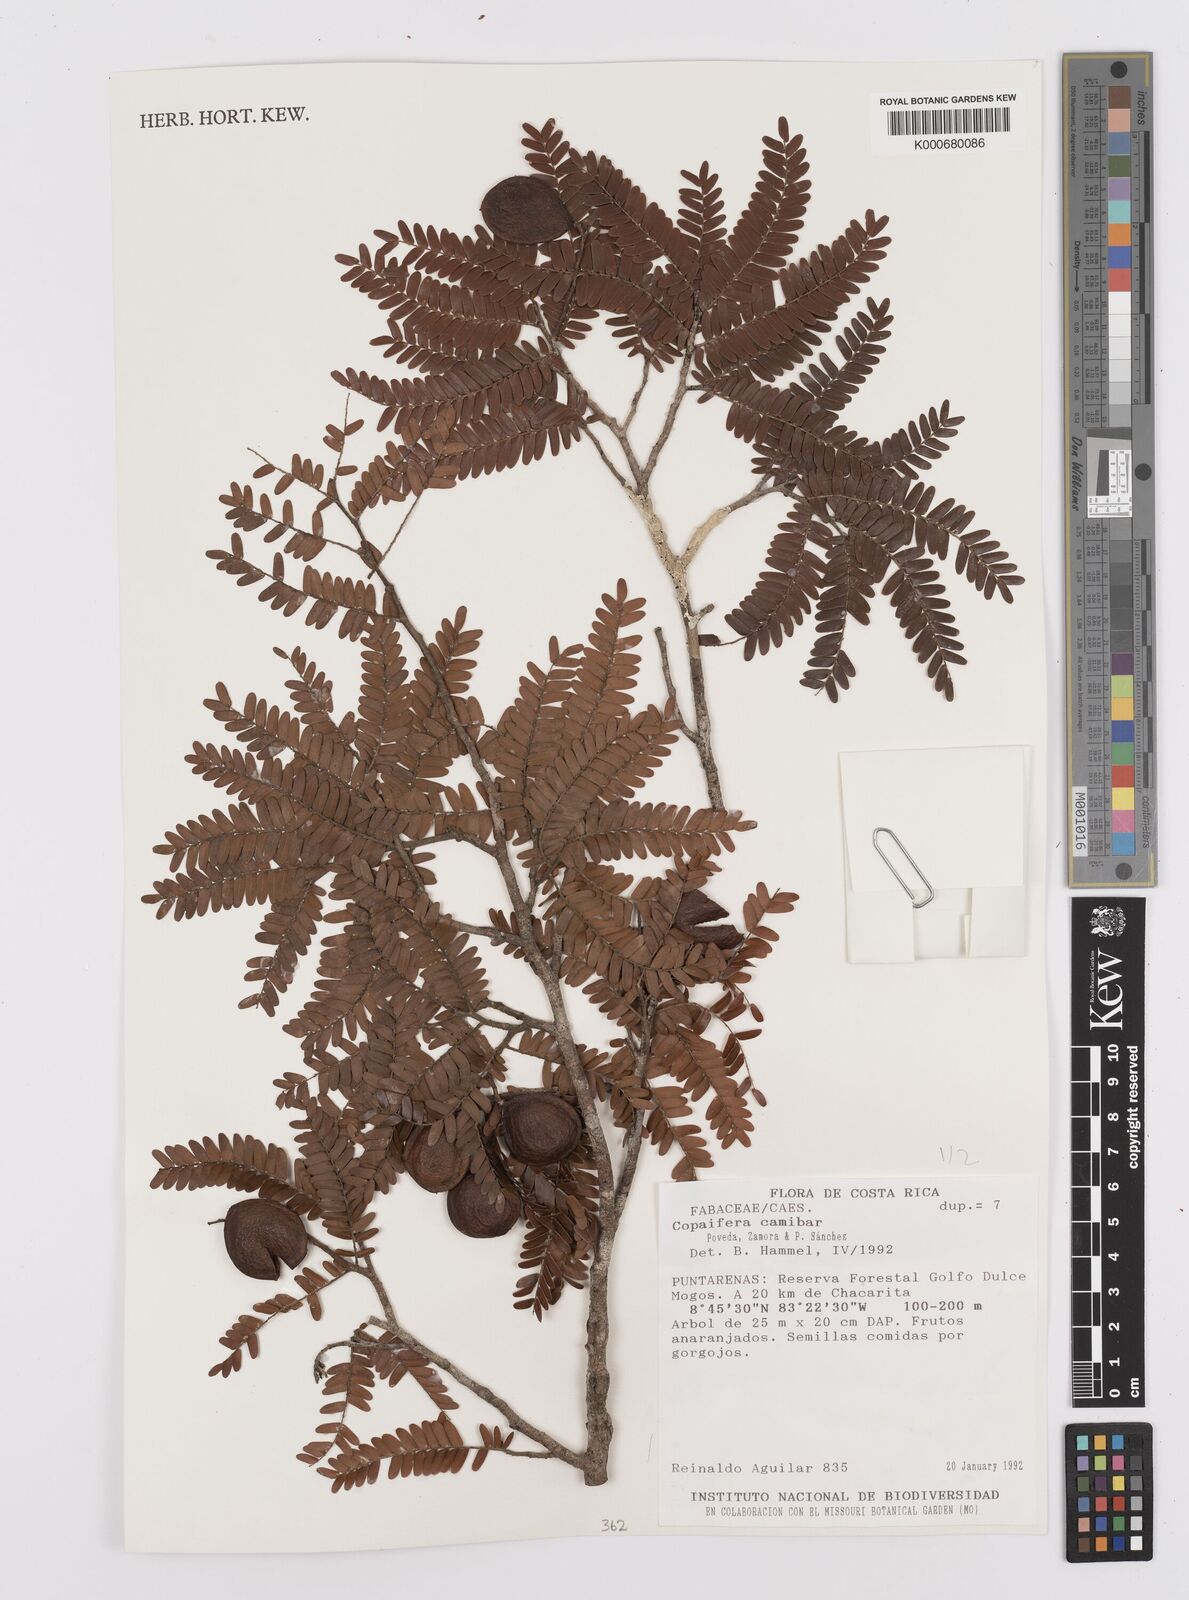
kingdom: Plantae
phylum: Tracheophyta
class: Magnoliopsida
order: Fabales
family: Fabaceae
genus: Copaifera
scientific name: Copaifera
